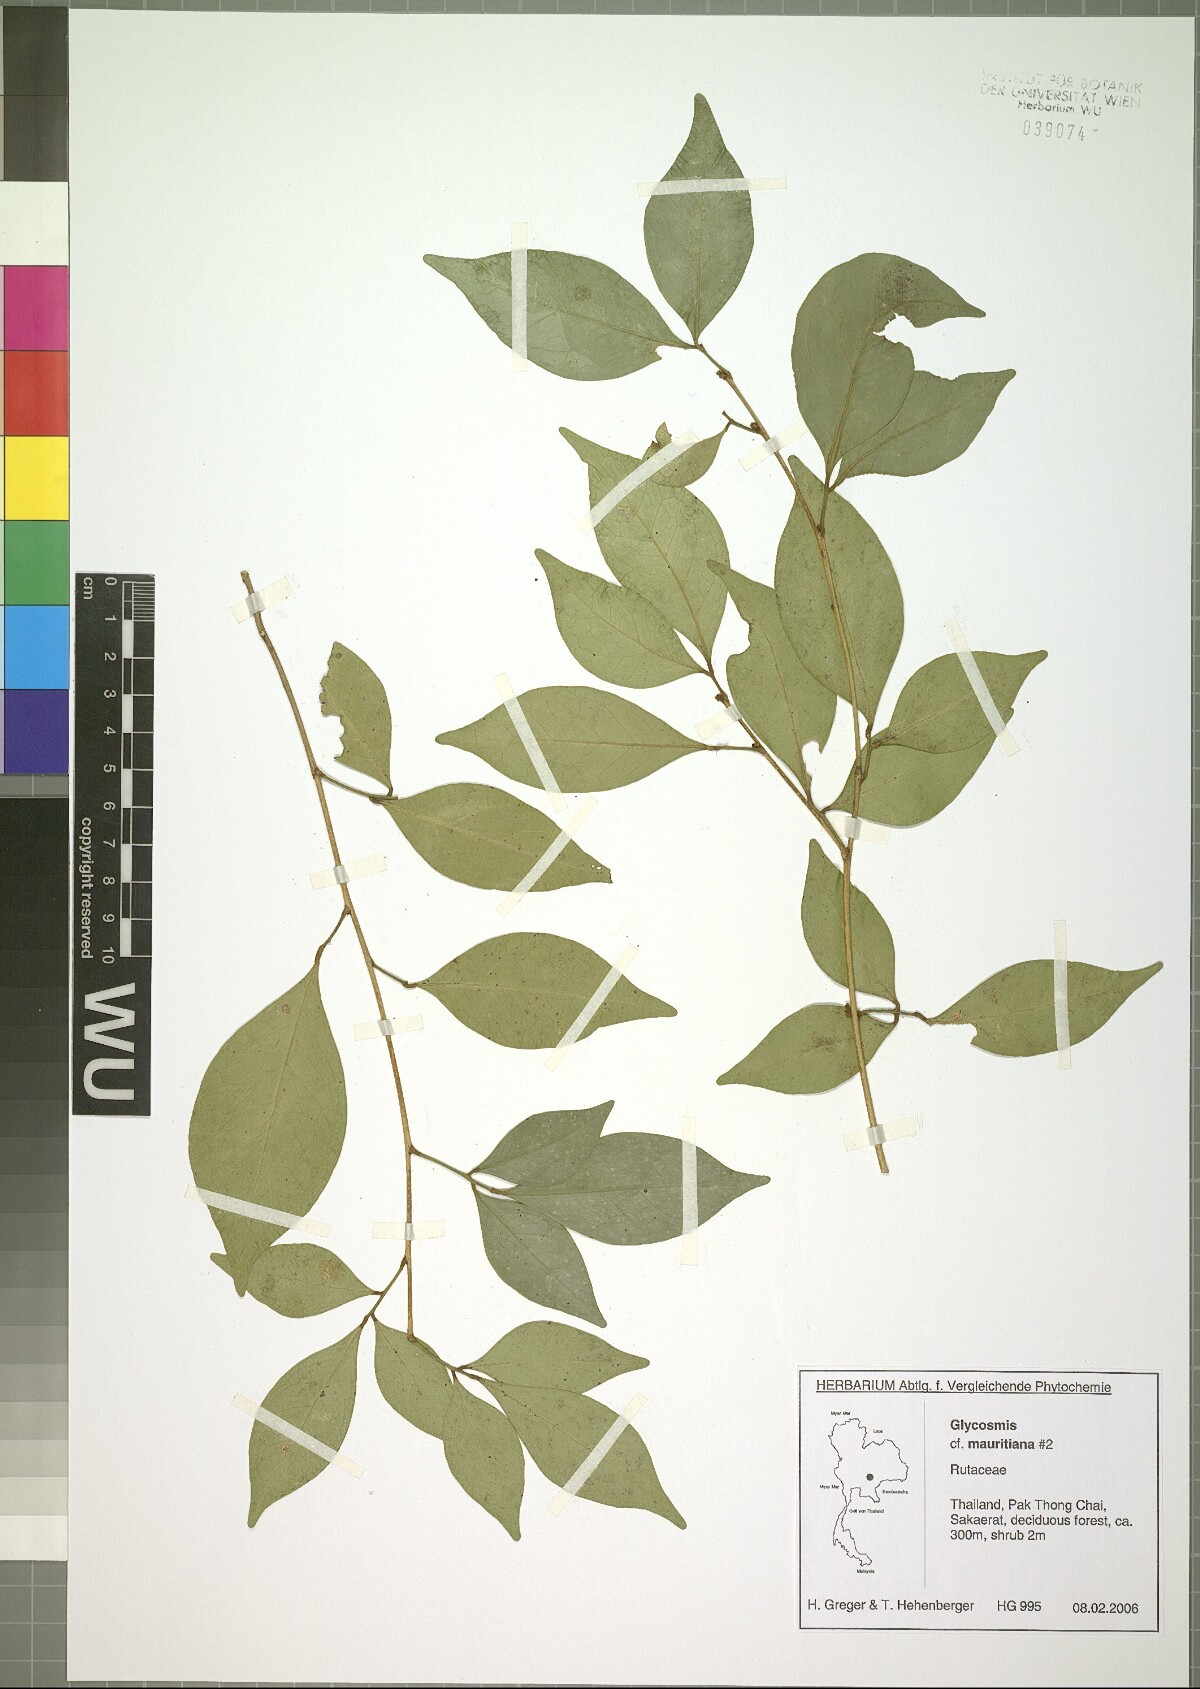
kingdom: Plantae
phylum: Tracheophyta
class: Magnoliopsida
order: Sapindales
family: Rutaceae
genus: Glycosmis
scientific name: Glycosmis mauritiana
